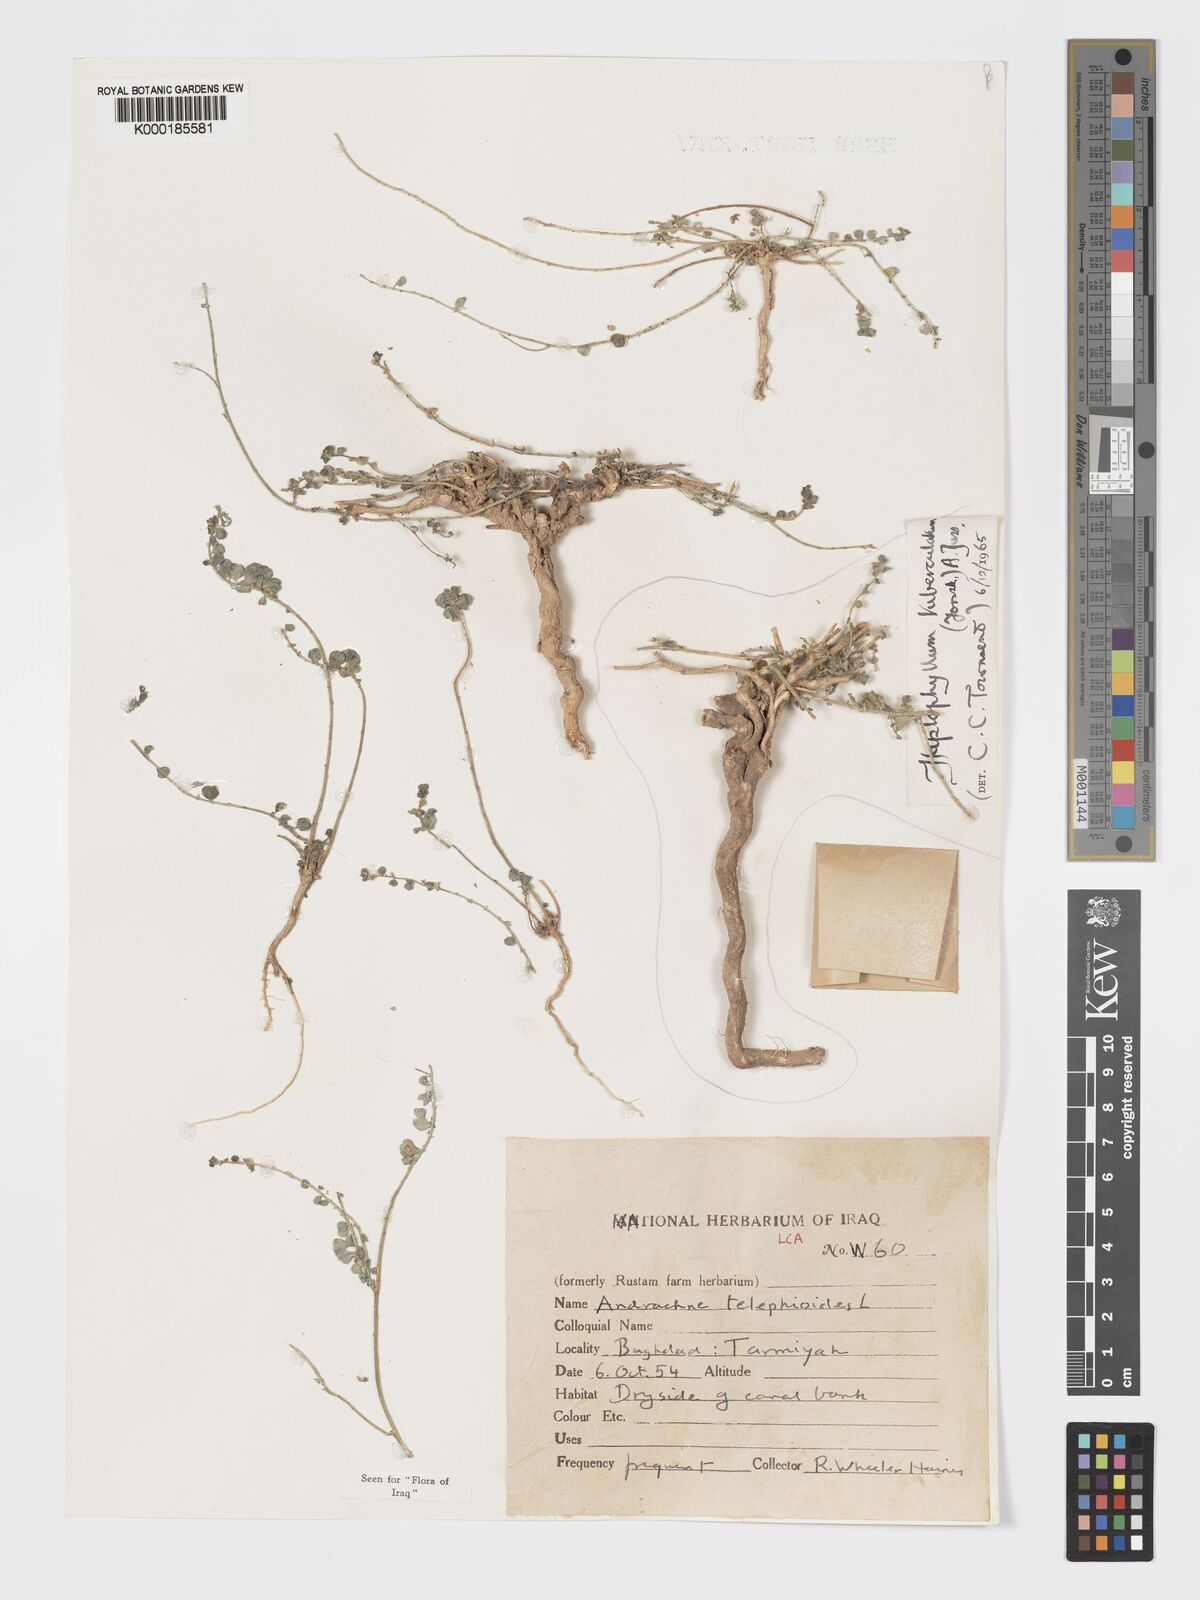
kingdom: Plantae
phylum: Tracheophyta
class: Magnoliopsida
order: Malpighiales
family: Phyllanthaceae
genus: Andrachne
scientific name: Andrachne telephioides
